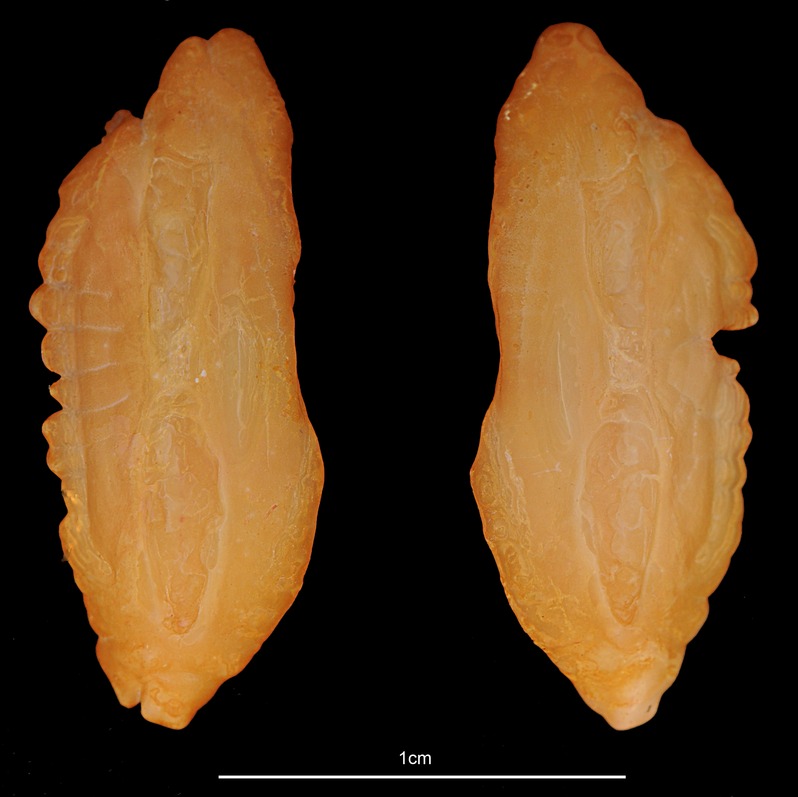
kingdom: Animalia
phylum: Chordata
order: Gadiformes
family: Lotidae
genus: Molva
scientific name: Molva dypterygia
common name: Blue ling
